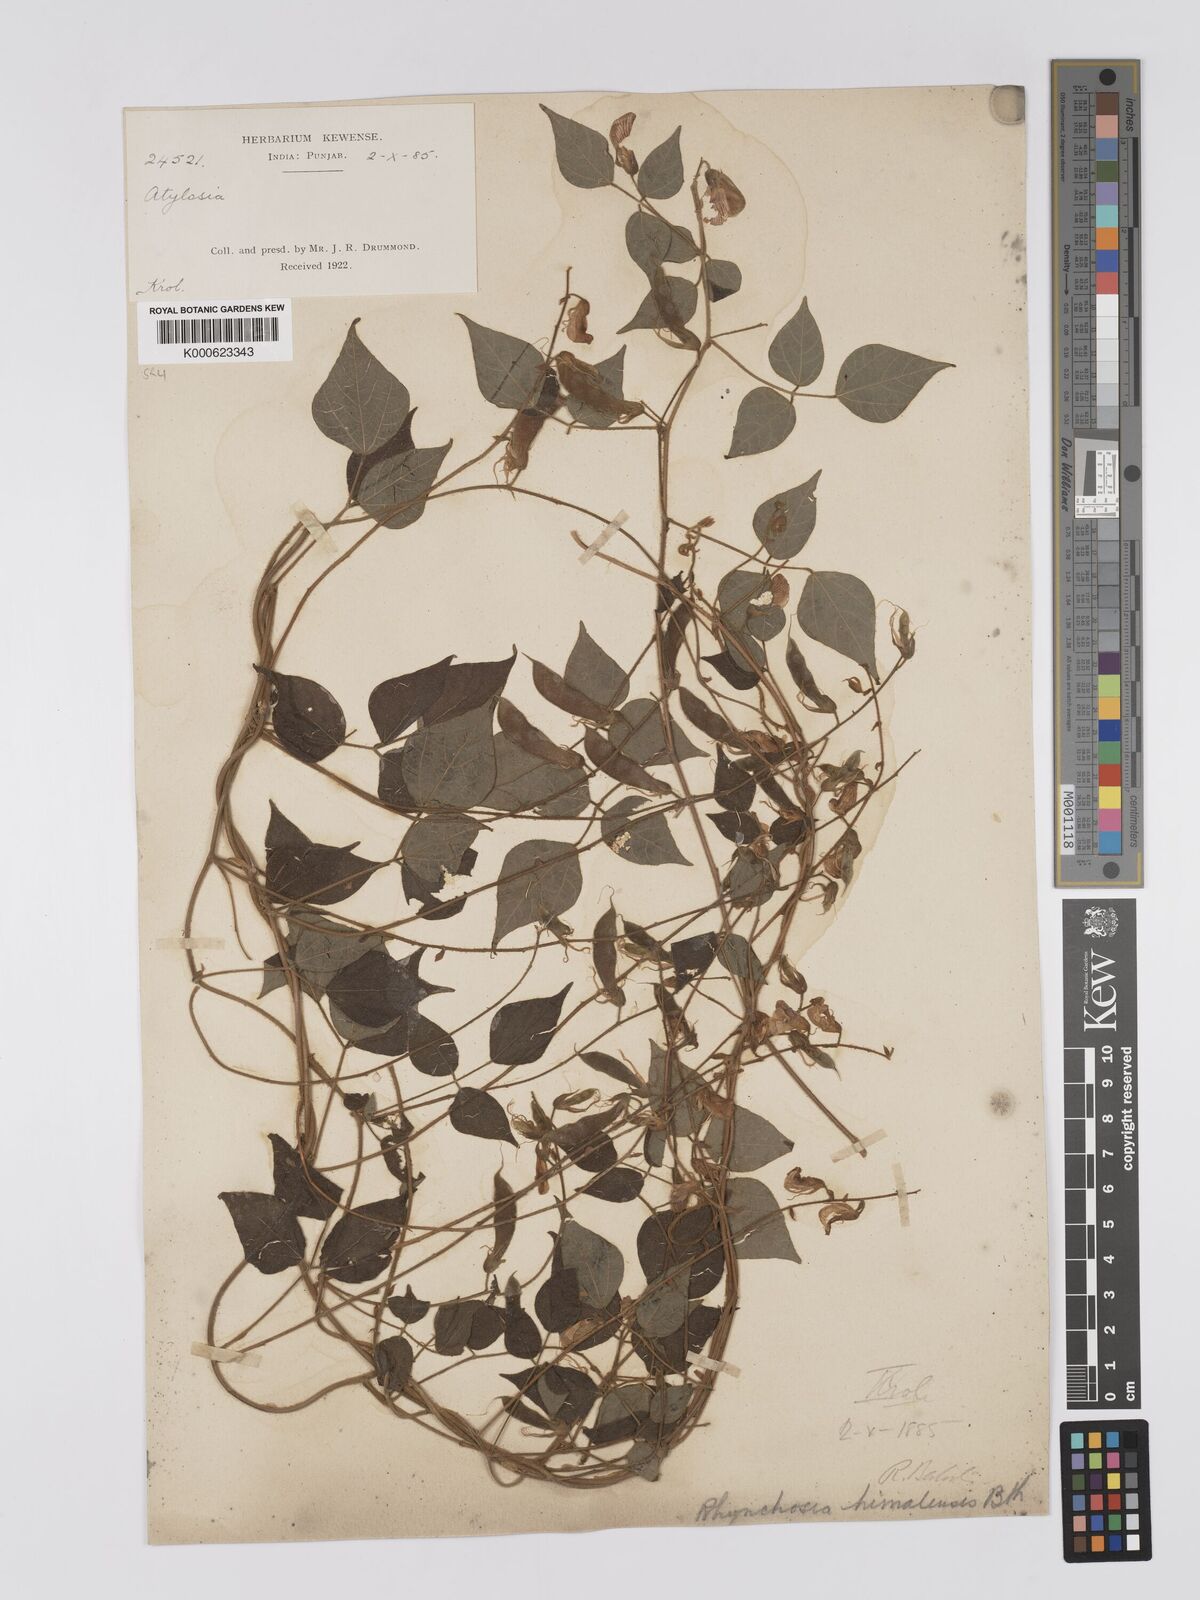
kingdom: Plantae
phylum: Tracheophyta
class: Magnoliopsida
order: Fabales
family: Fabaceae
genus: Rhynchosia
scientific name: Rhynchosia himalensis
